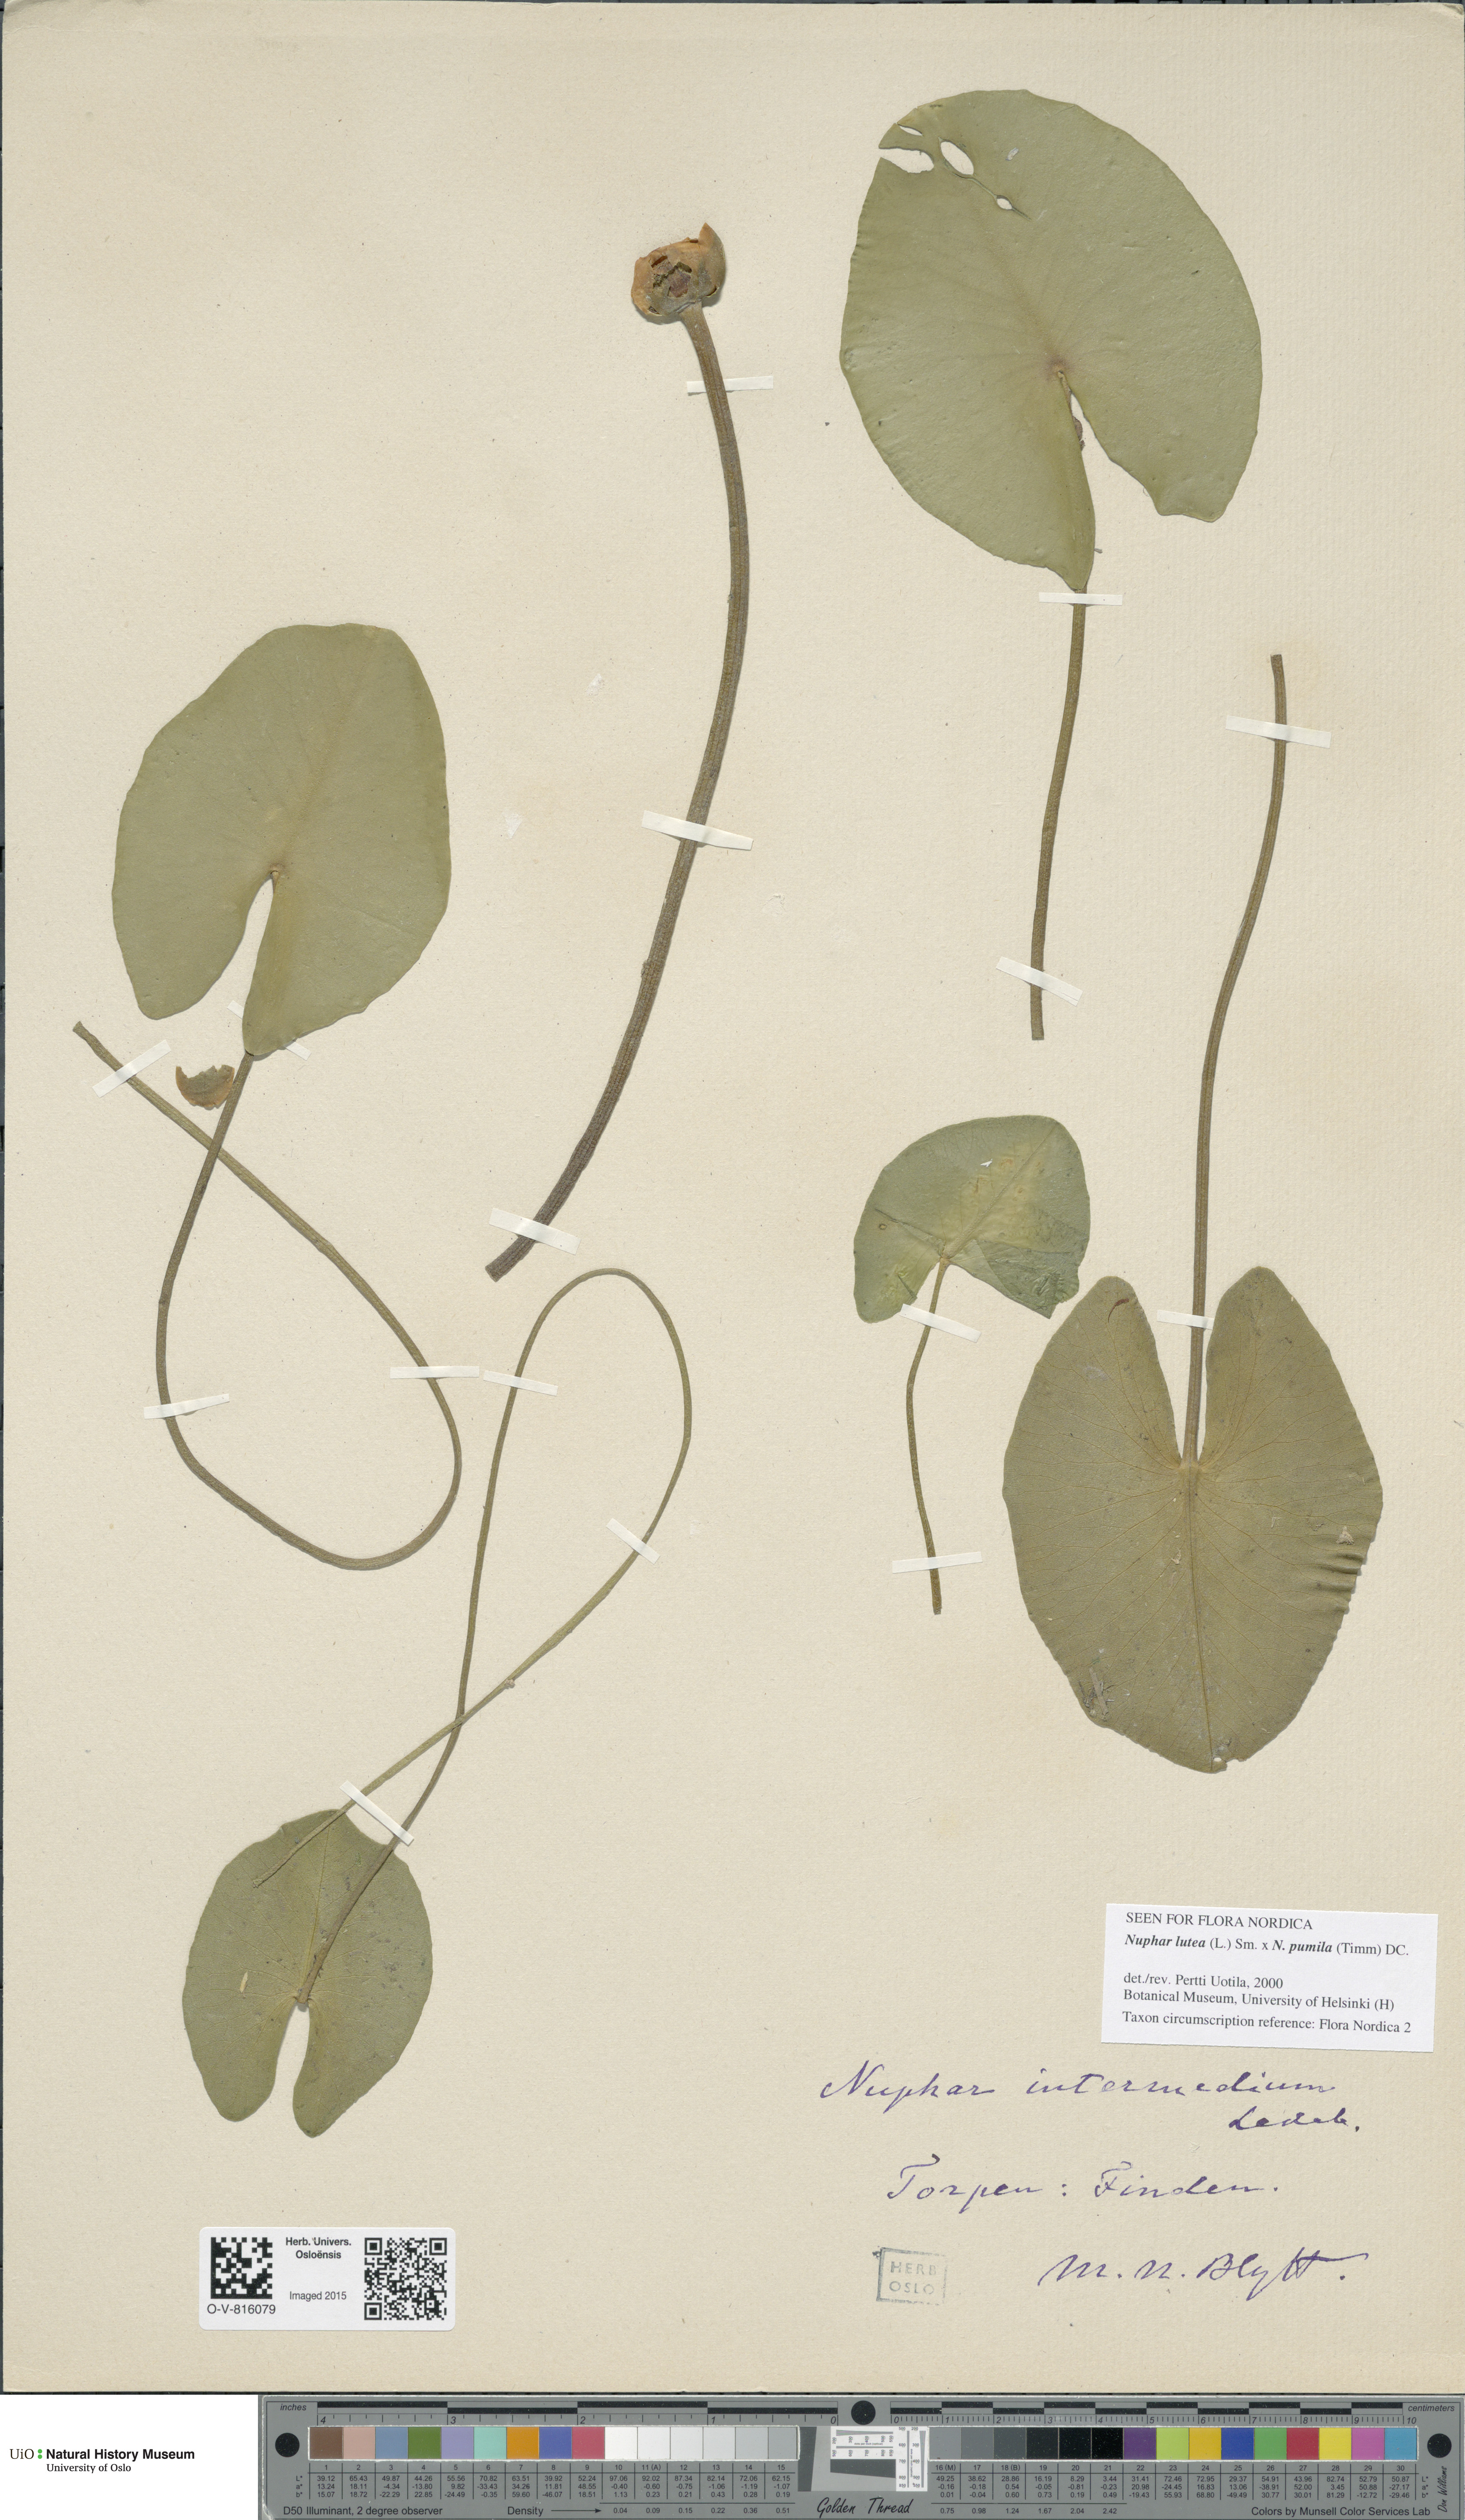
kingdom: Plantae
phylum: Tracheophyta
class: Magnoliopsida
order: Nymphaeales
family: Nymphaeaceae
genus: Nuphar
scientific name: Nuphar
